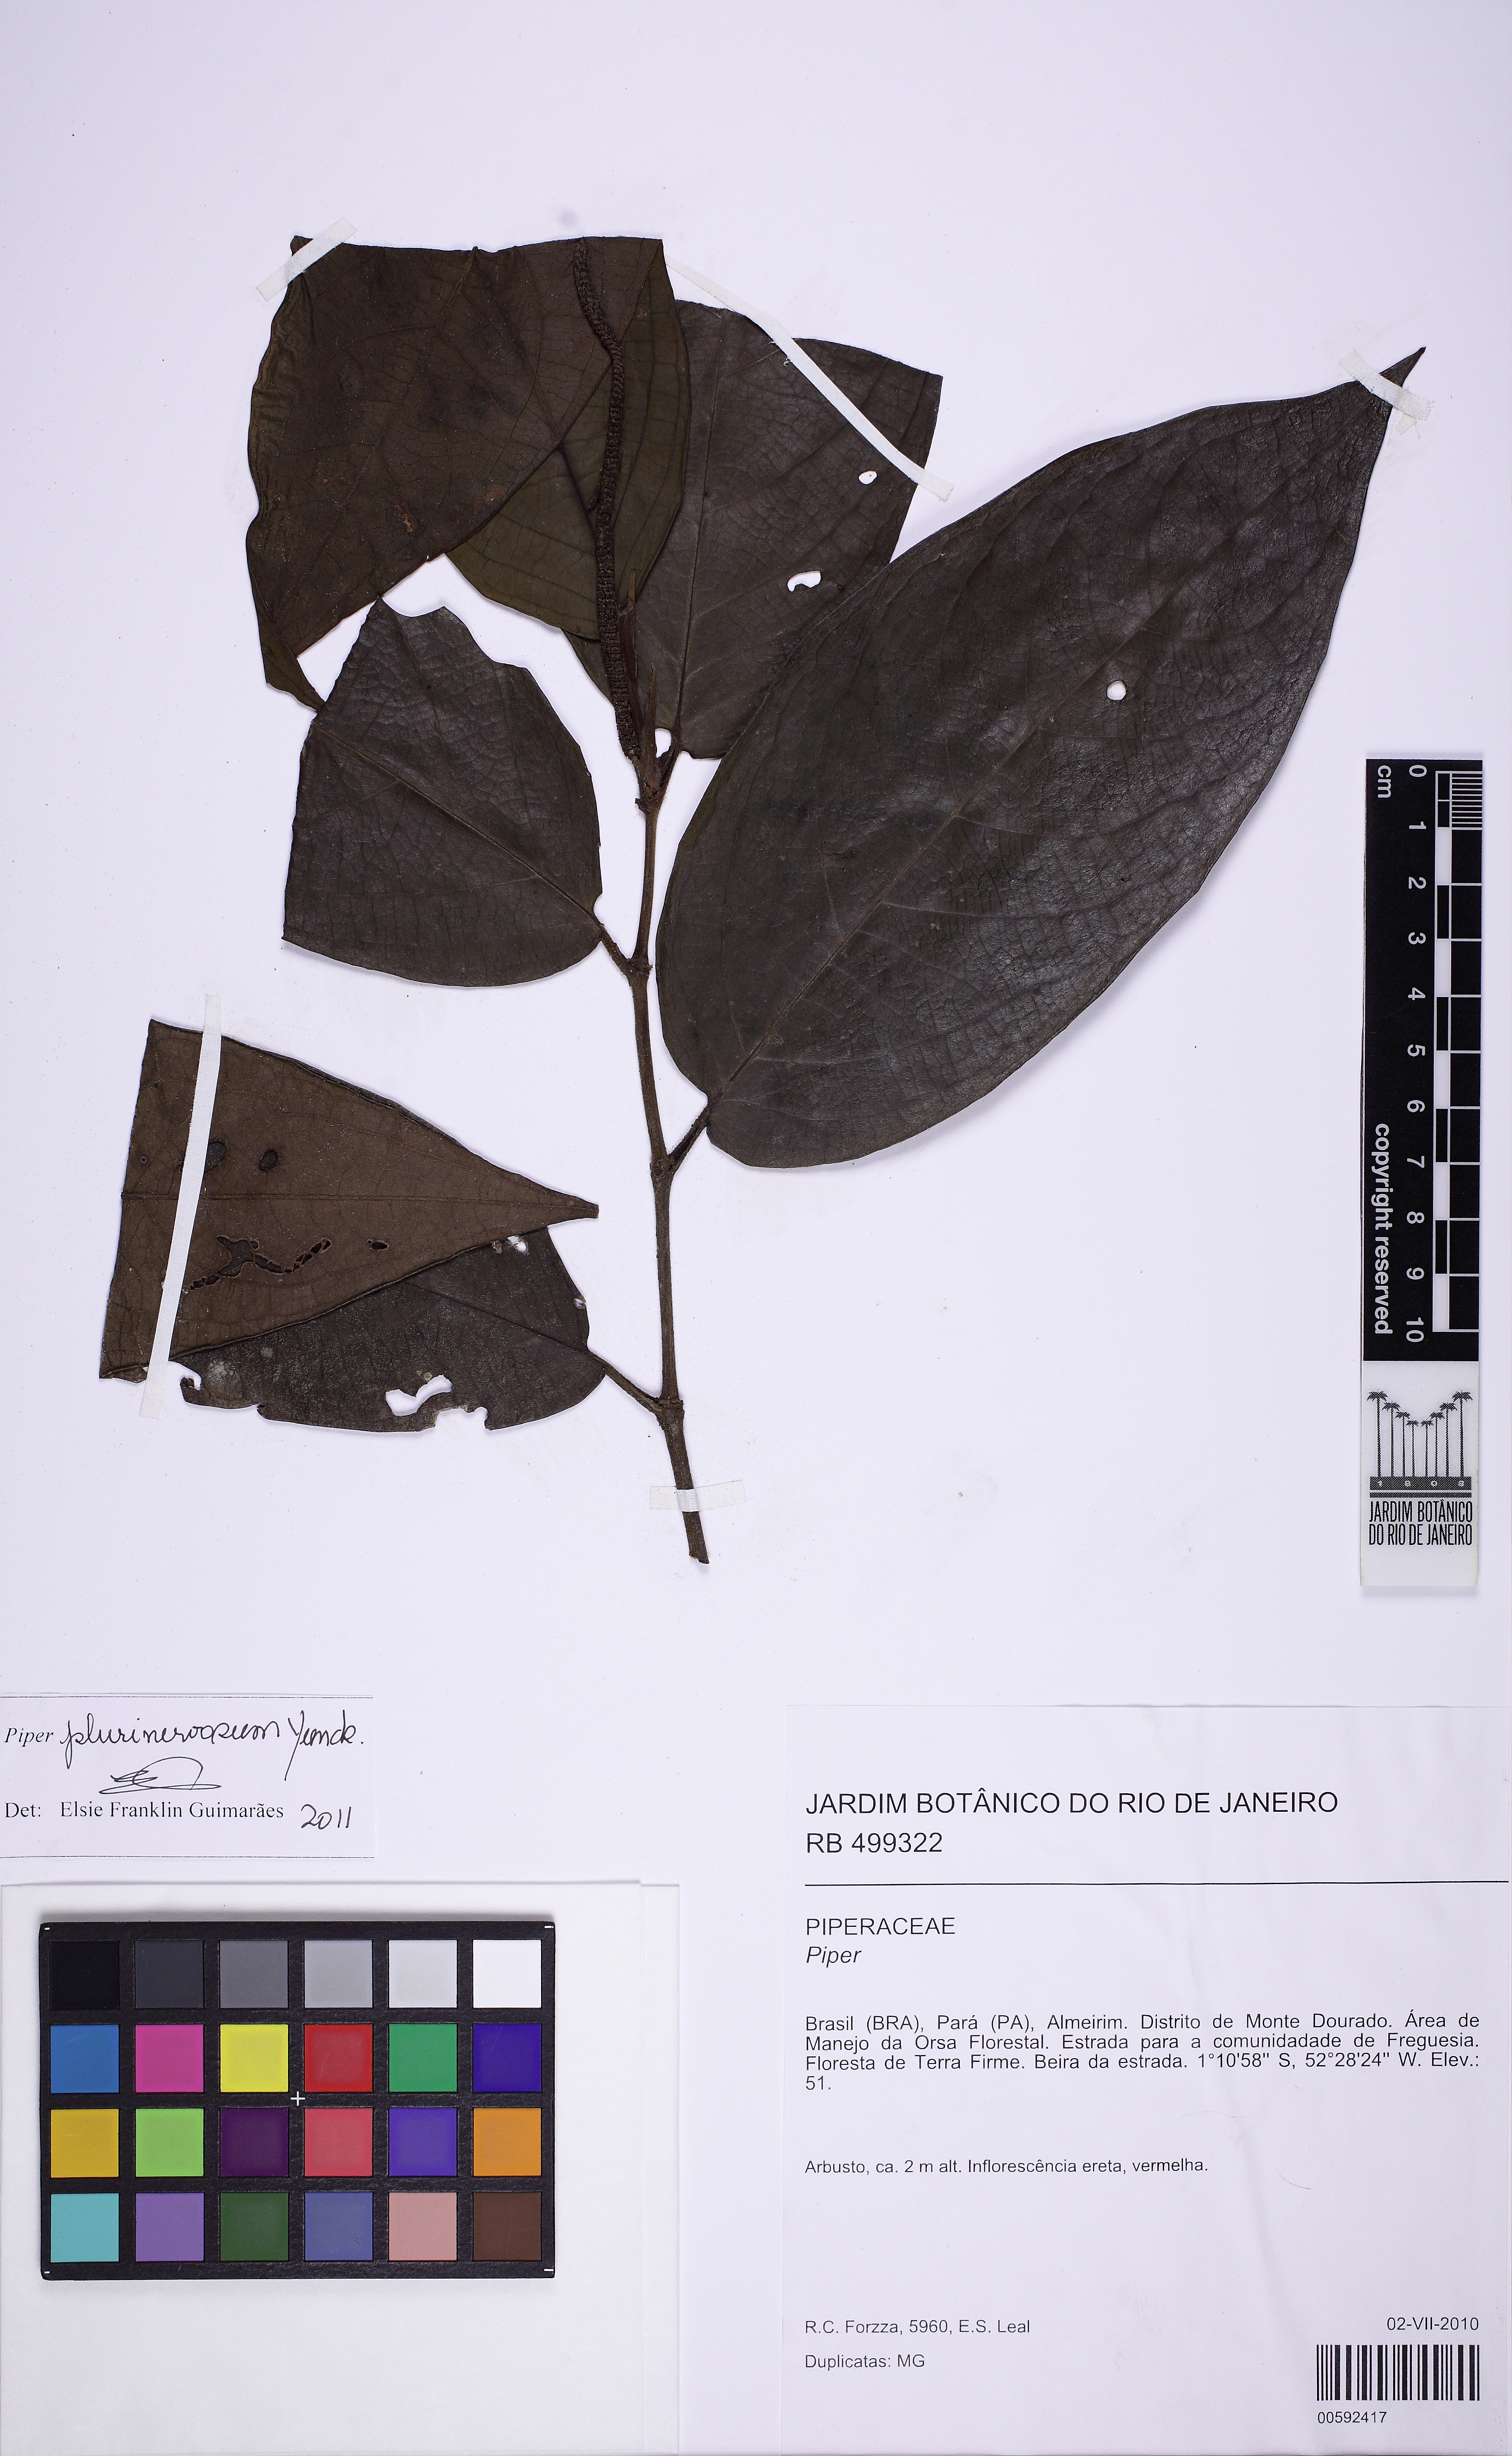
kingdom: Plantae
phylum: Tracheophyta
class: Magnoliopsida
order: Piperales
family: Piperaceae
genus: Piper
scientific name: Piper plurinervosum
